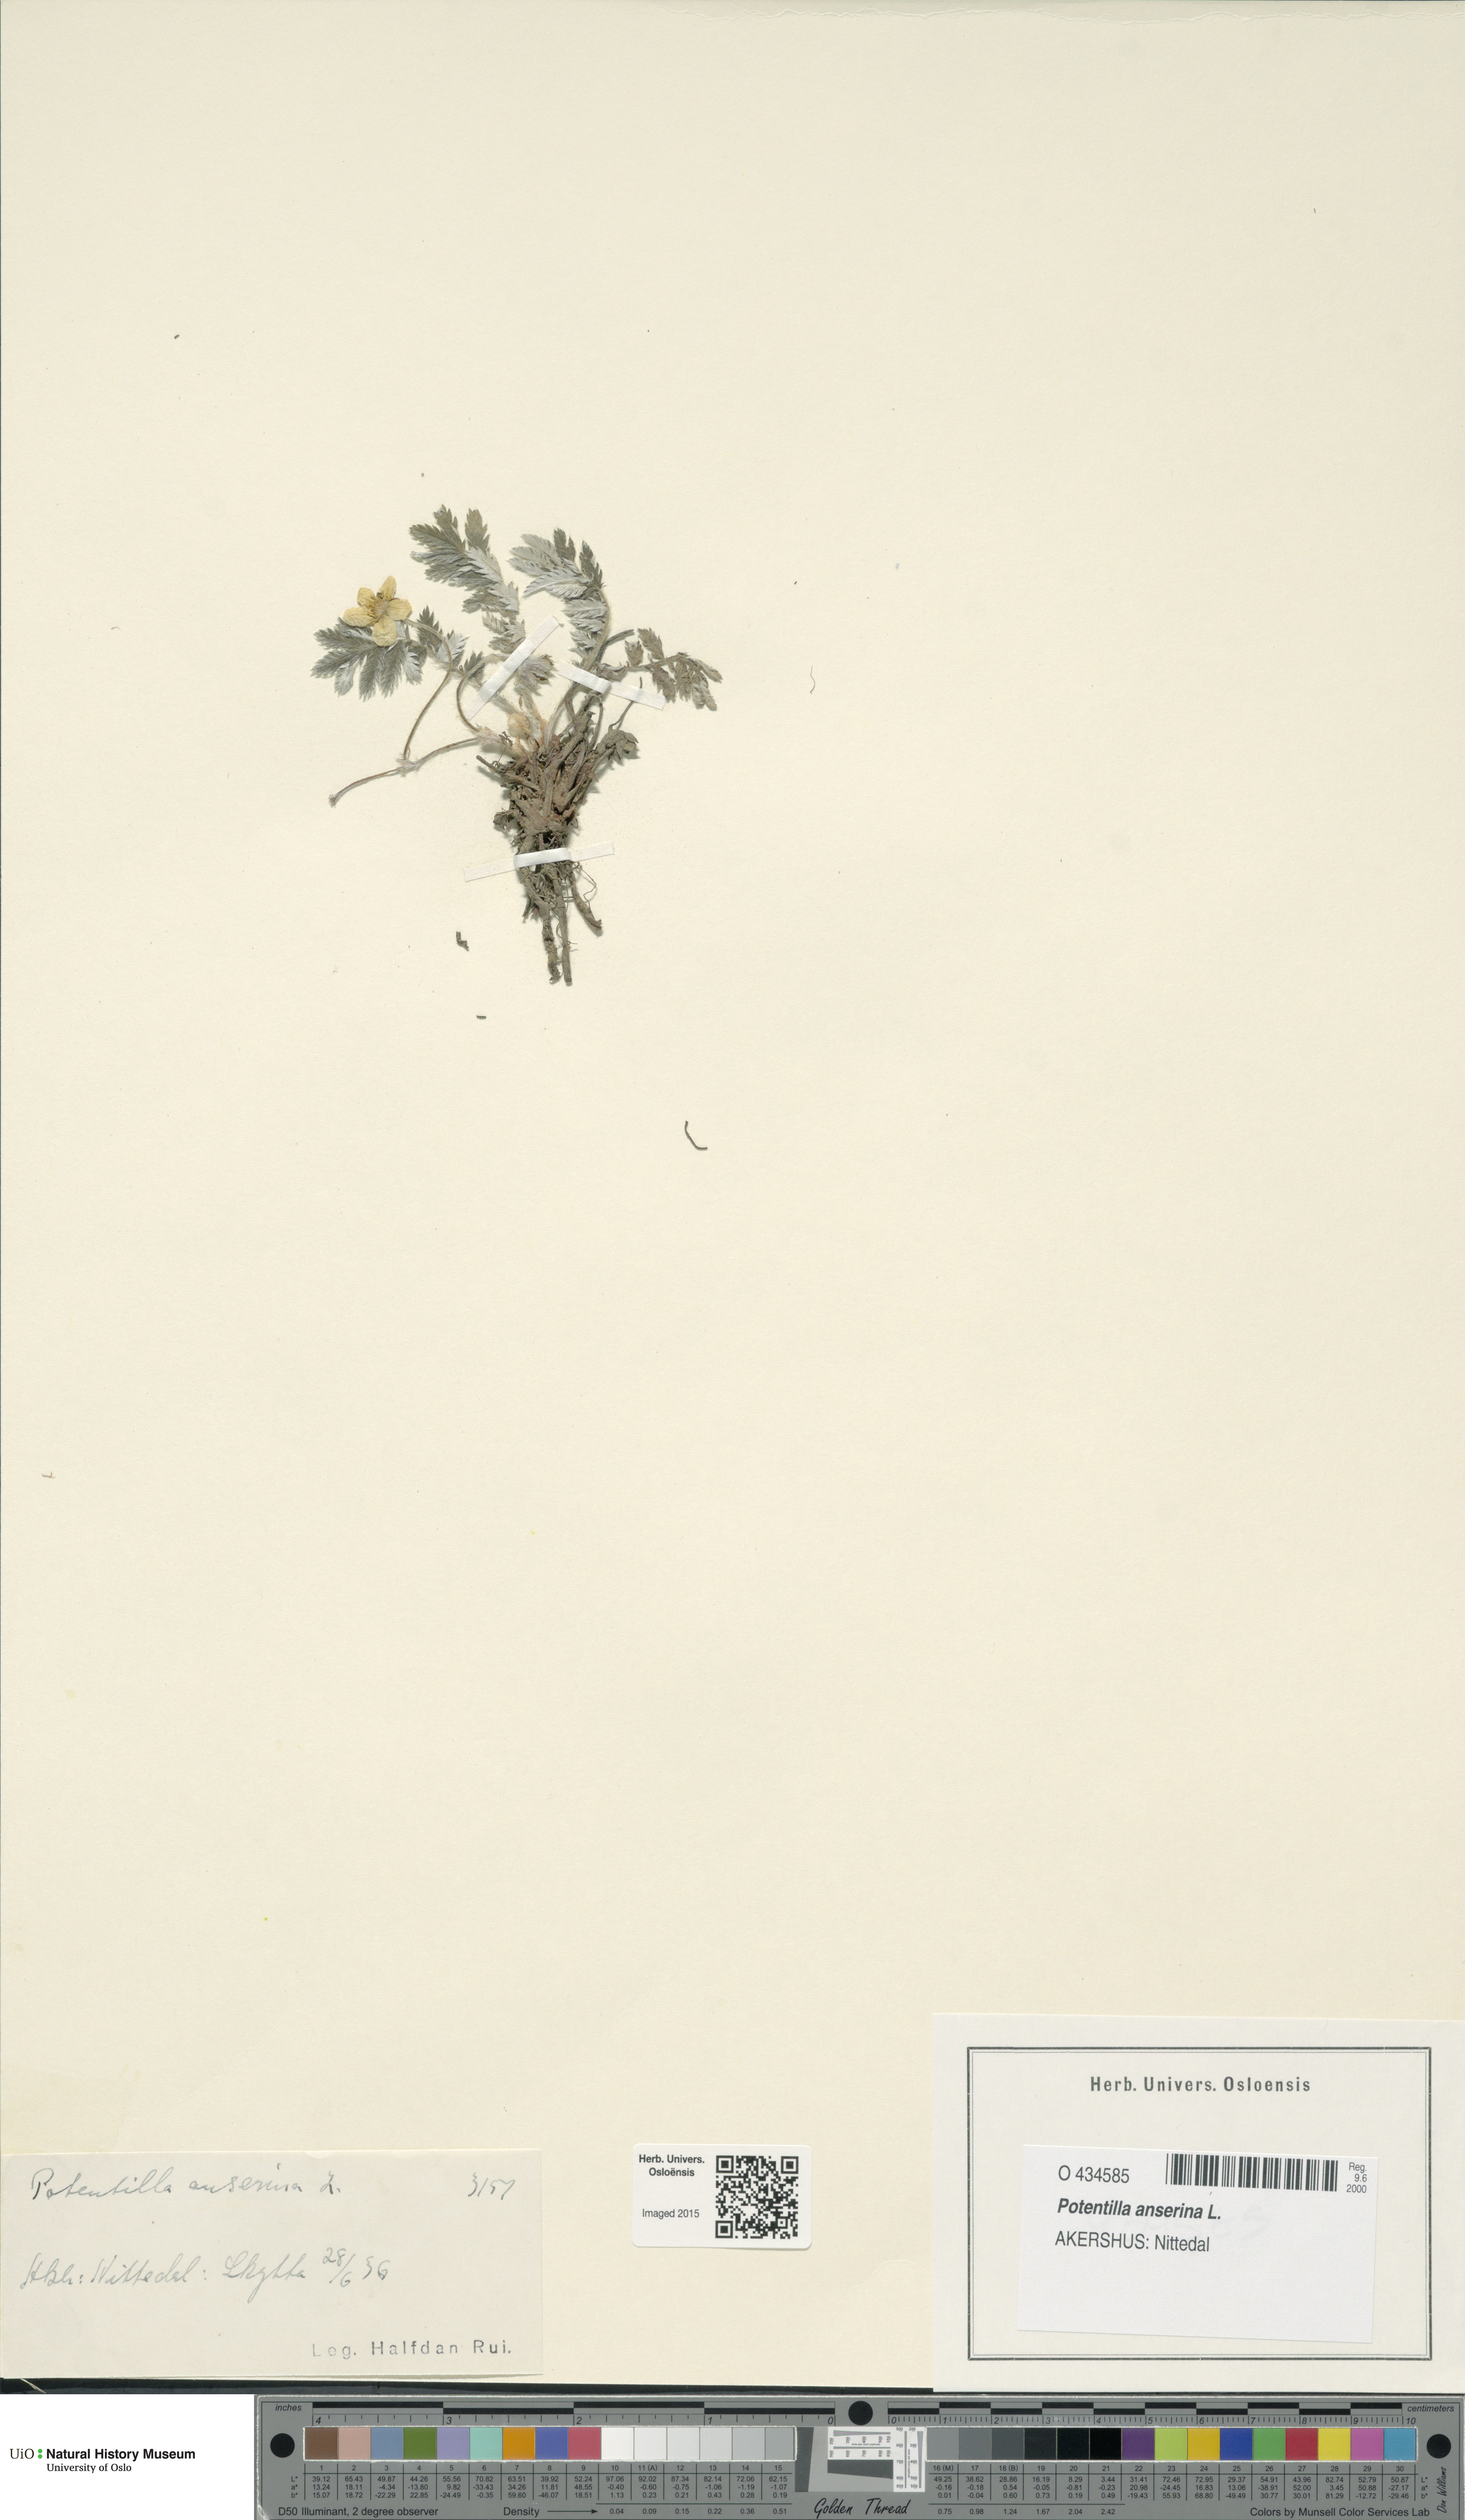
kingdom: Plantae
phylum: Tracheophyta
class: Magnoliopsida
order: Rosales
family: Rosaceae
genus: Argentina
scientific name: Argentina anserina
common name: Common silverweed
